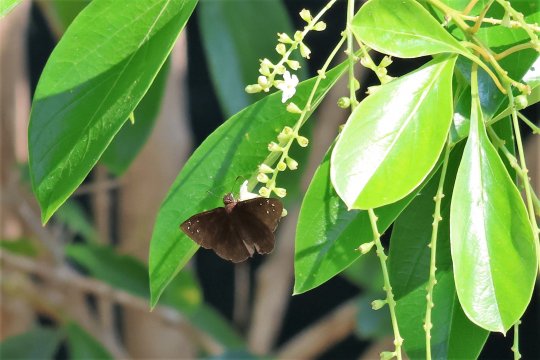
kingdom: Animalia
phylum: Arthropoda
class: Insecta
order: Lepidoptera
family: Hesperiidae
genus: Ephyriades
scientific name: Ephyriades brunnea
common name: Florida Duskywing
